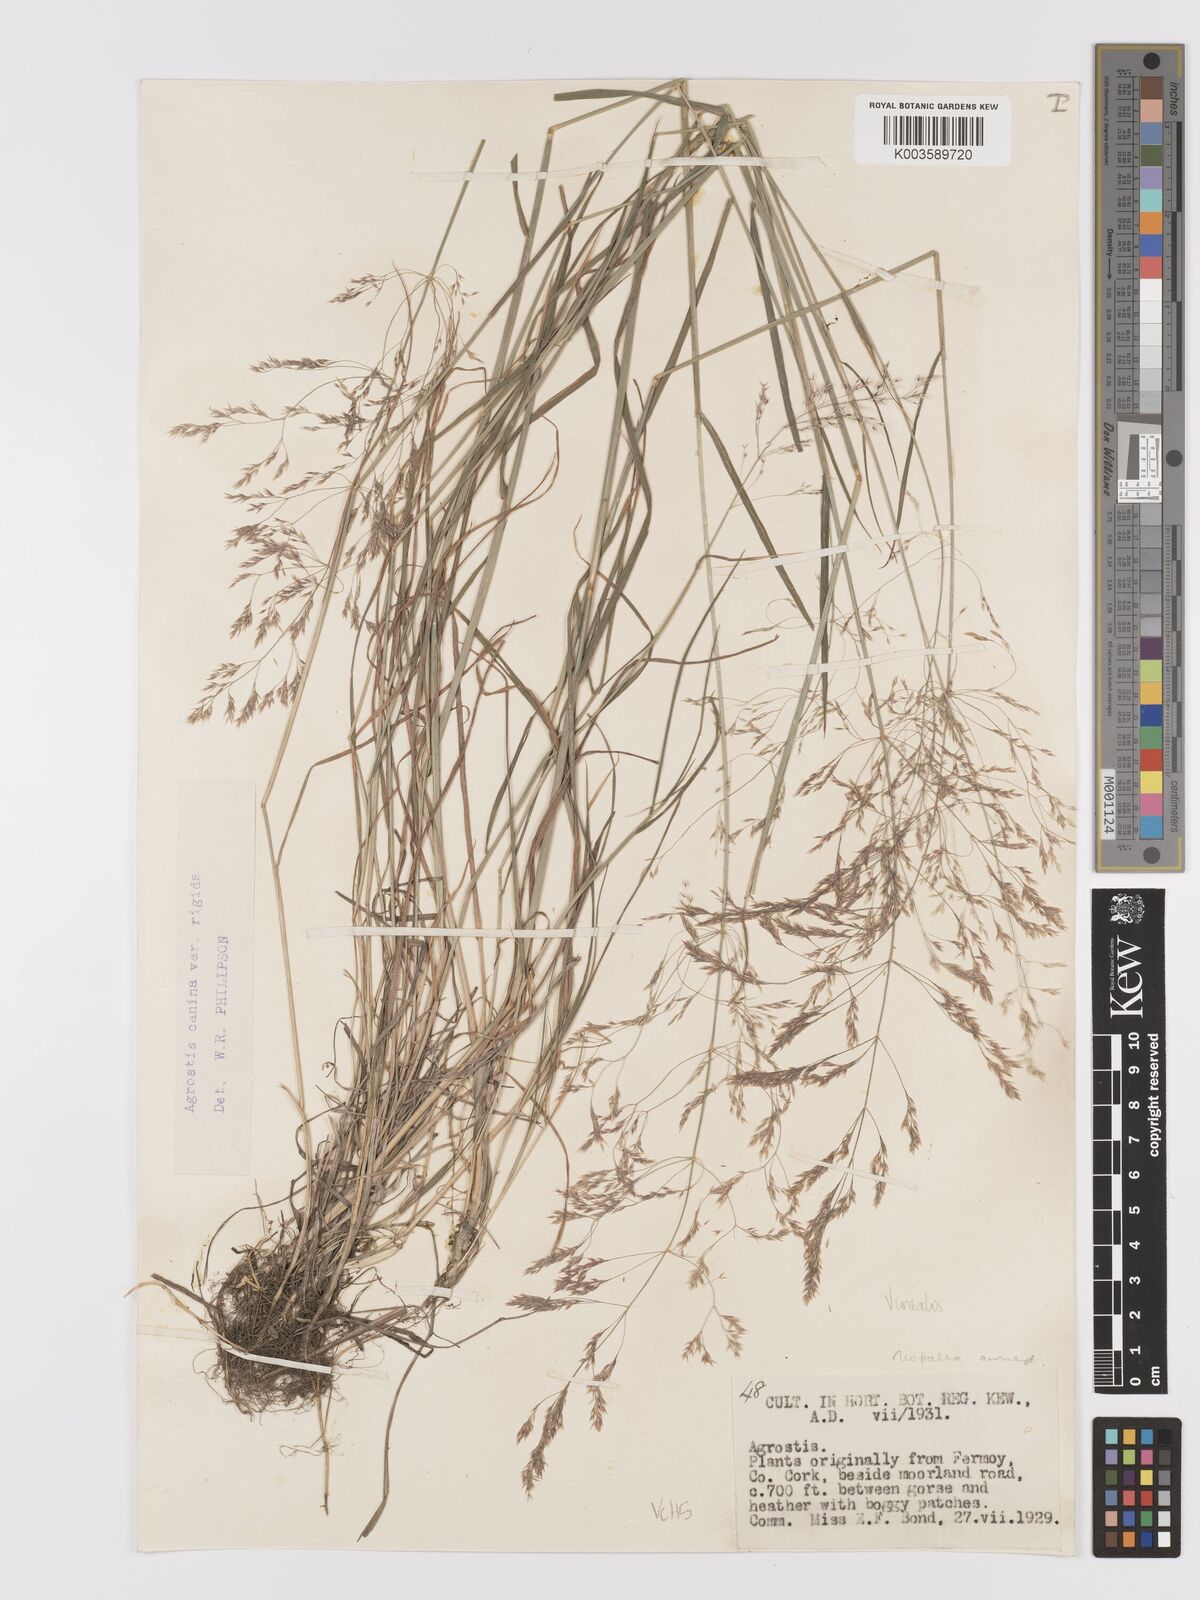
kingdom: Plantae
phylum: Tracheophyta
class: Liliopsida
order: Poales
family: Poaceae
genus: Agrostis
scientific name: Agrostis
